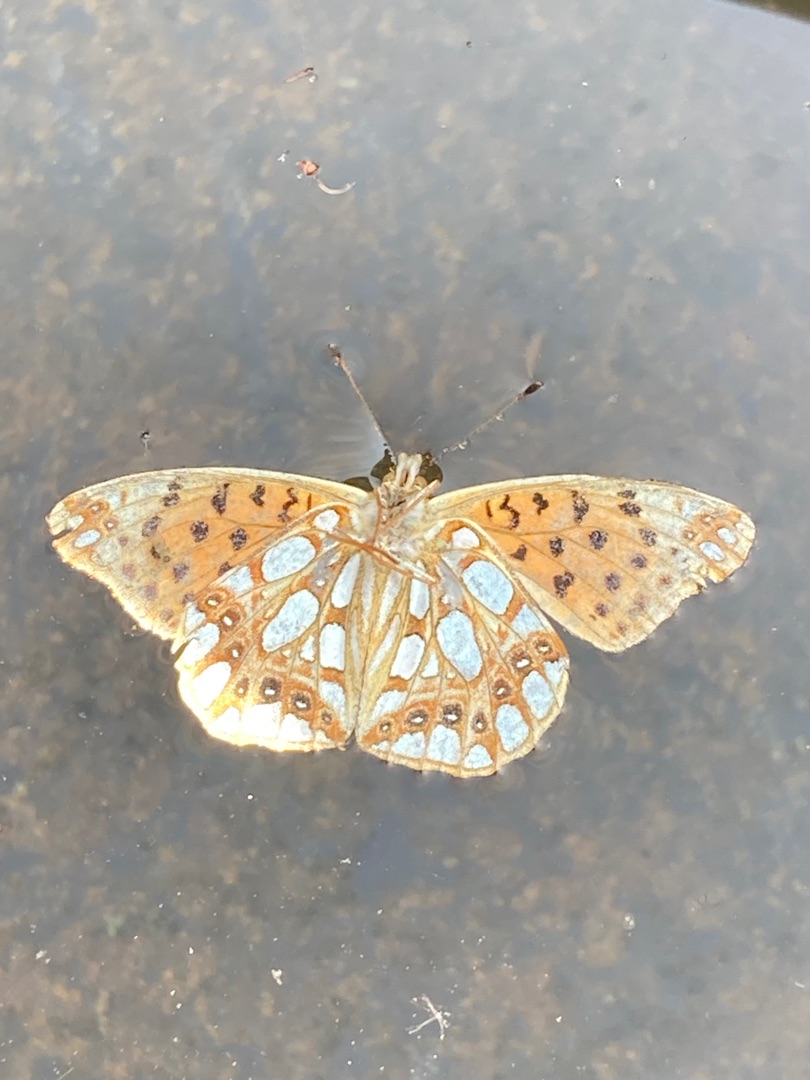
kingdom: Animalia
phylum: Arthropoda
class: Insecta
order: Lepidoptera
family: Nymphalidae
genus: Issoria
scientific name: Issoria lathonia
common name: Storplettet perlemorsommerfugl
